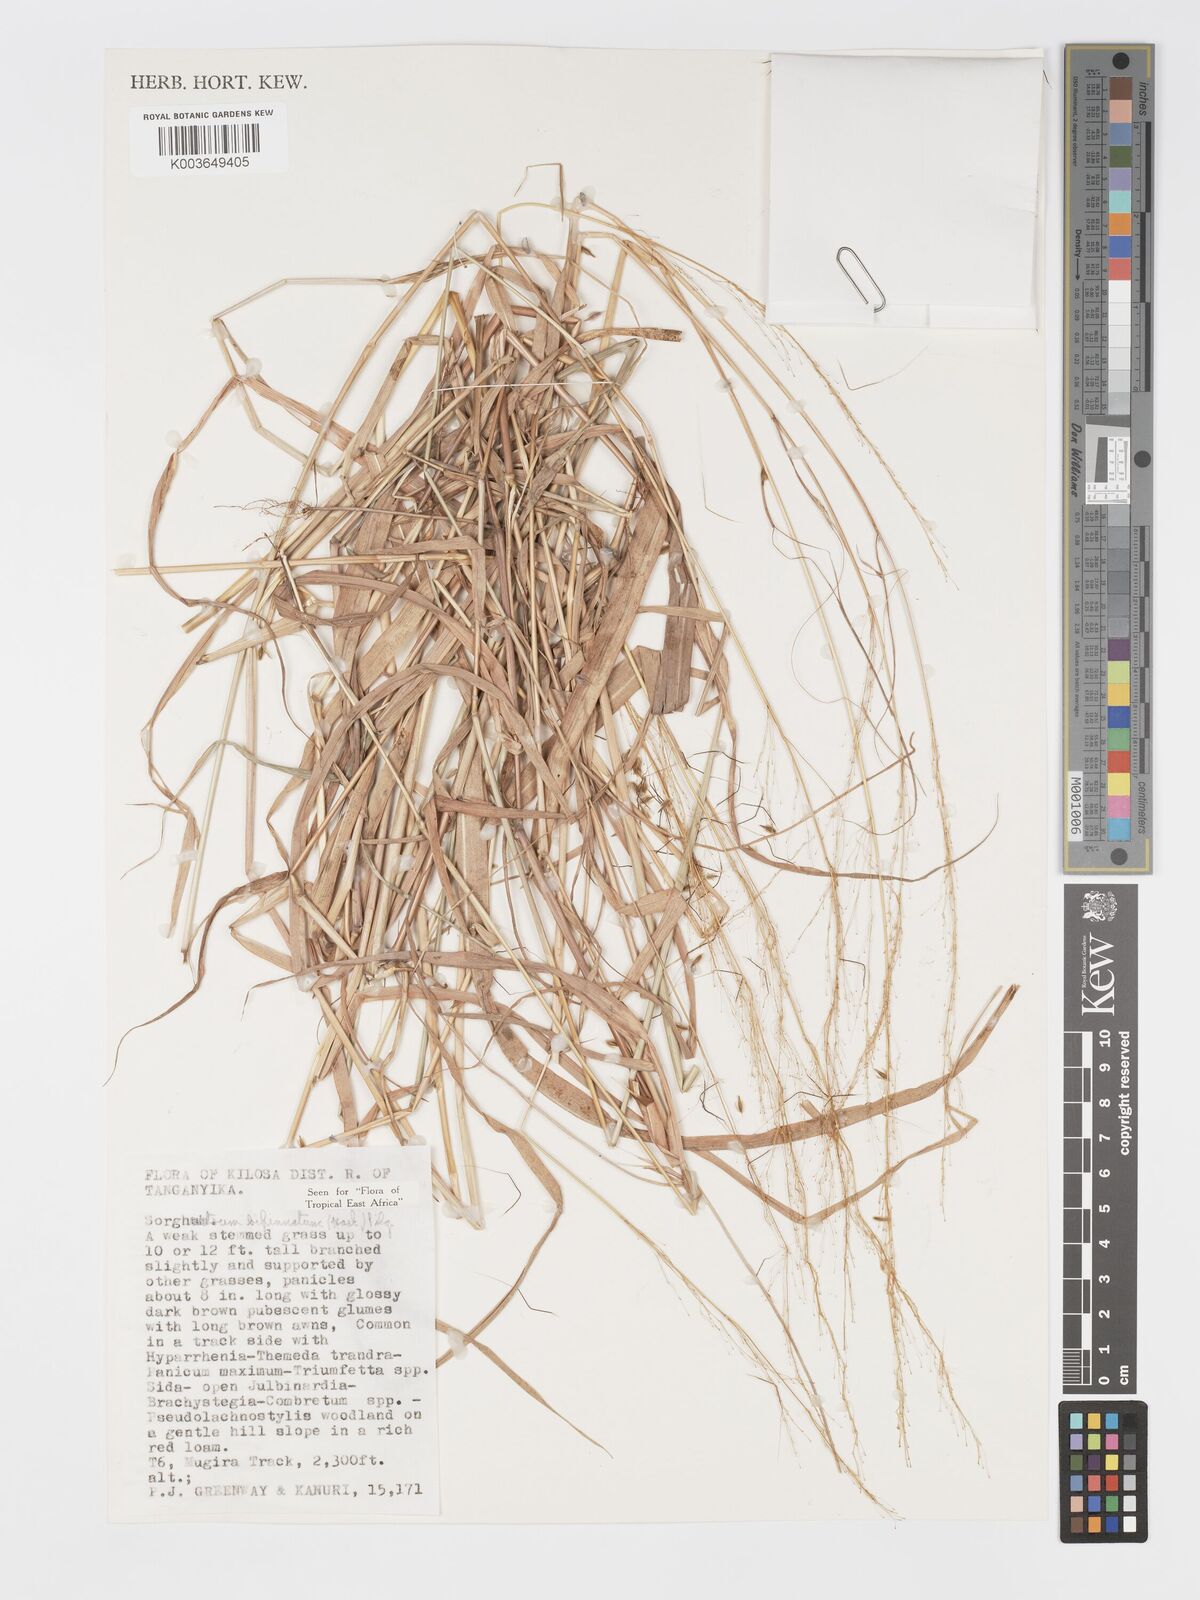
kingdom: Plantae
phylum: Tracheophyta
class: Liliopsida
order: Poales
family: Poaceae
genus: Sorghastrum
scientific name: Sorghastrum incompletum
